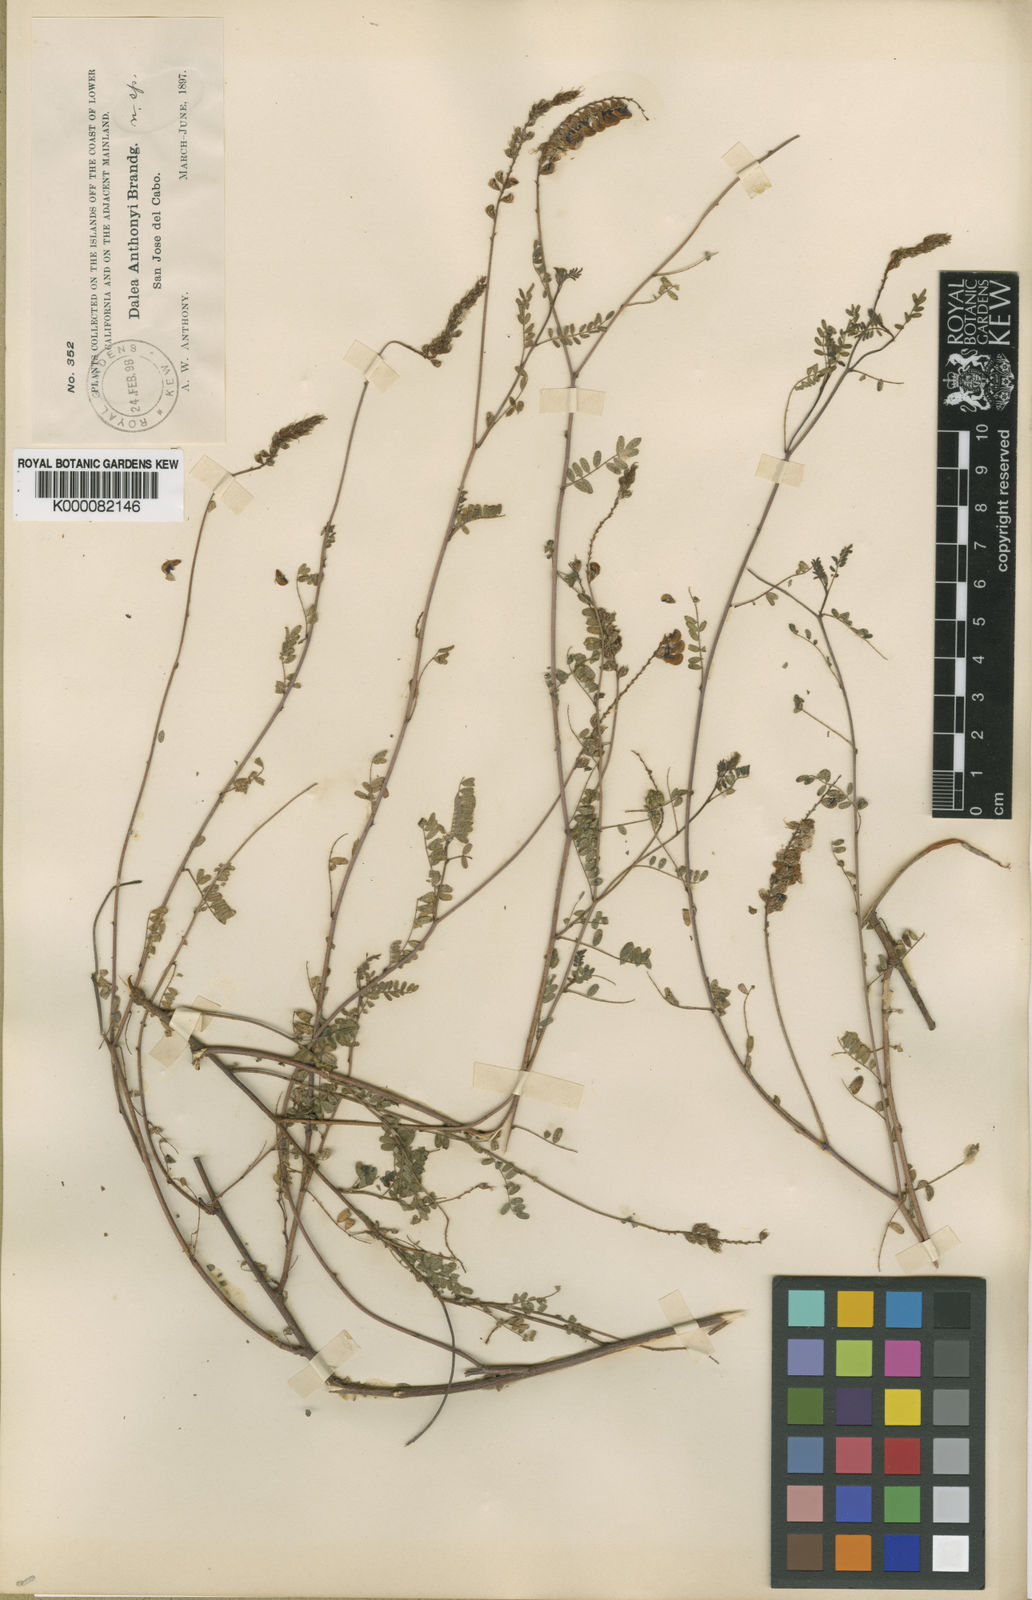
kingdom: Plantae
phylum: Tracheophyta
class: Magnoliopsida
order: Fabales
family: Fabaceae
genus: Marina
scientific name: Marina divaricata
